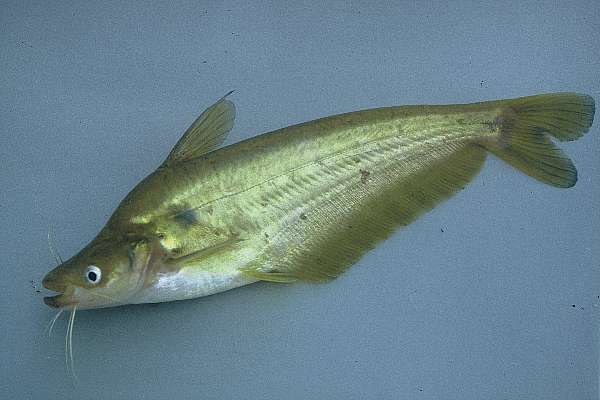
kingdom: Animalia
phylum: Chordata
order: Siluriformes
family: Schilbeidae
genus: Schilbe
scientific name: Schilbe intermedius
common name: Silver catfish
